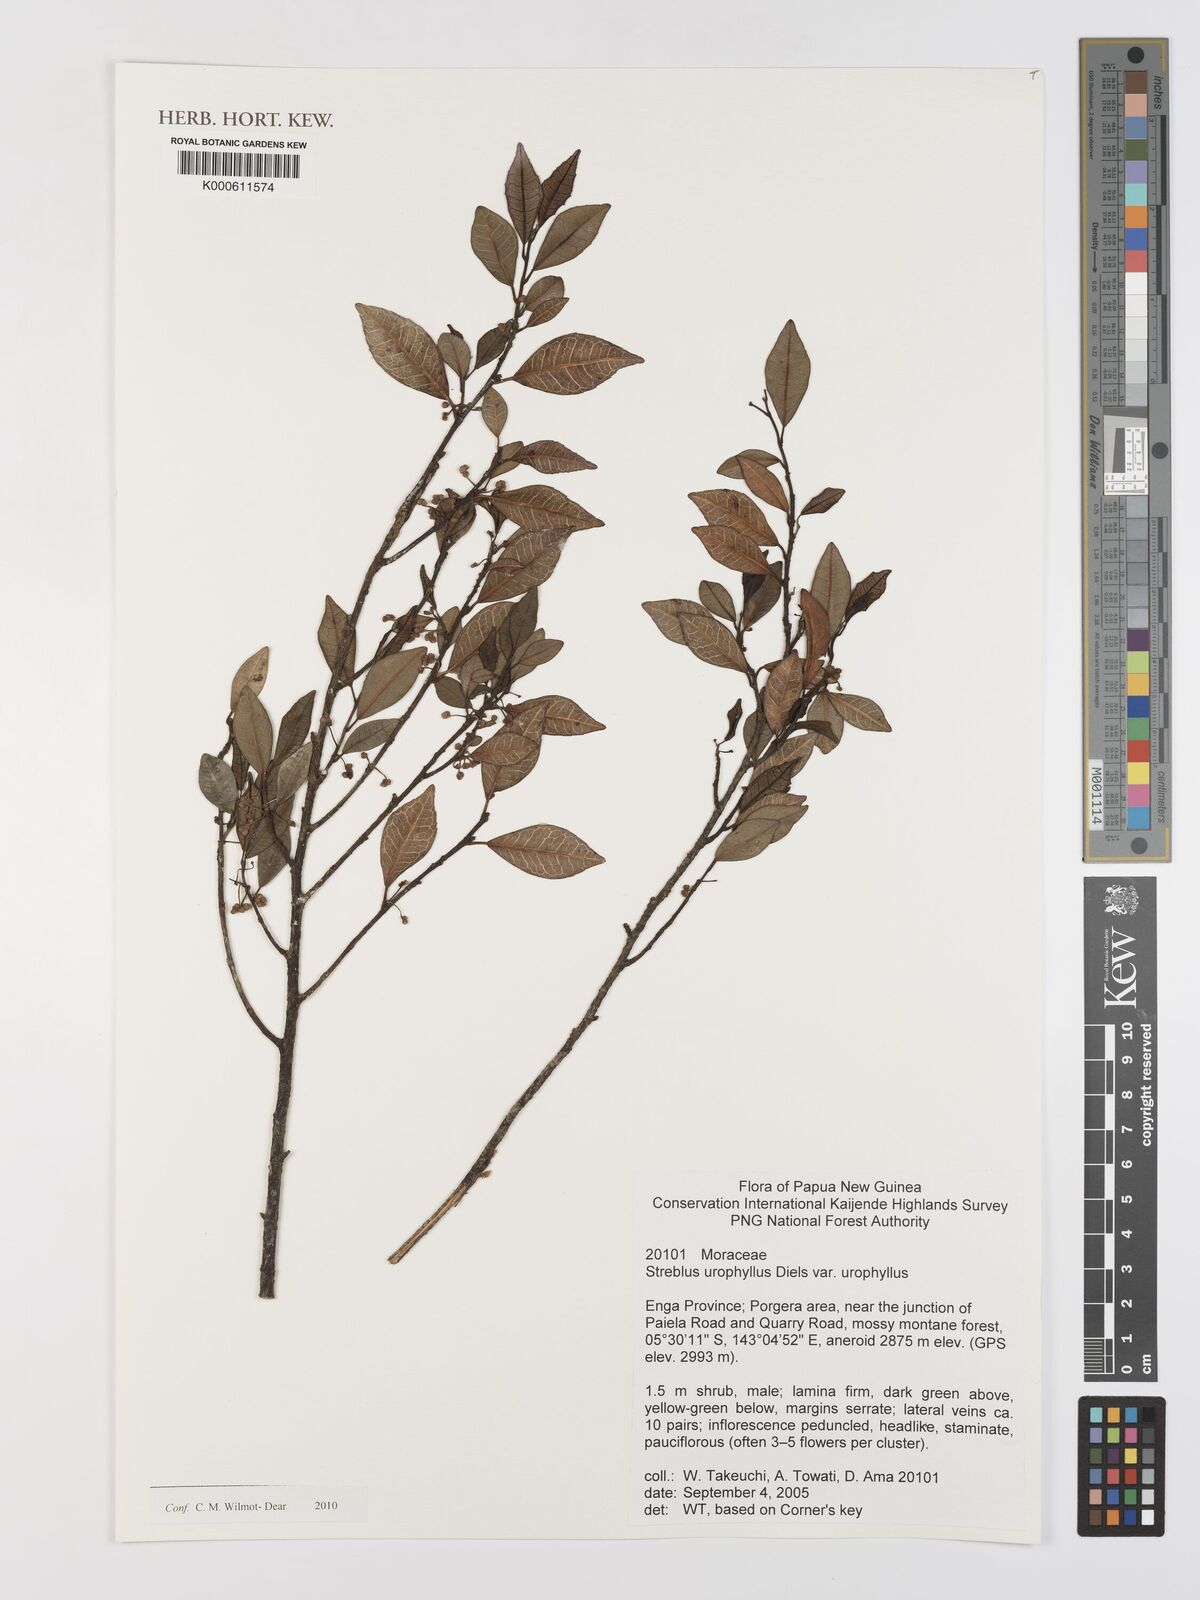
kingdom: Plantae
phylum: Tracheophyta
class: Magnoliopsida
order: Rosales
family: Moraceae
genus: Paratrophis
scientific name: Paratrophis glabra
